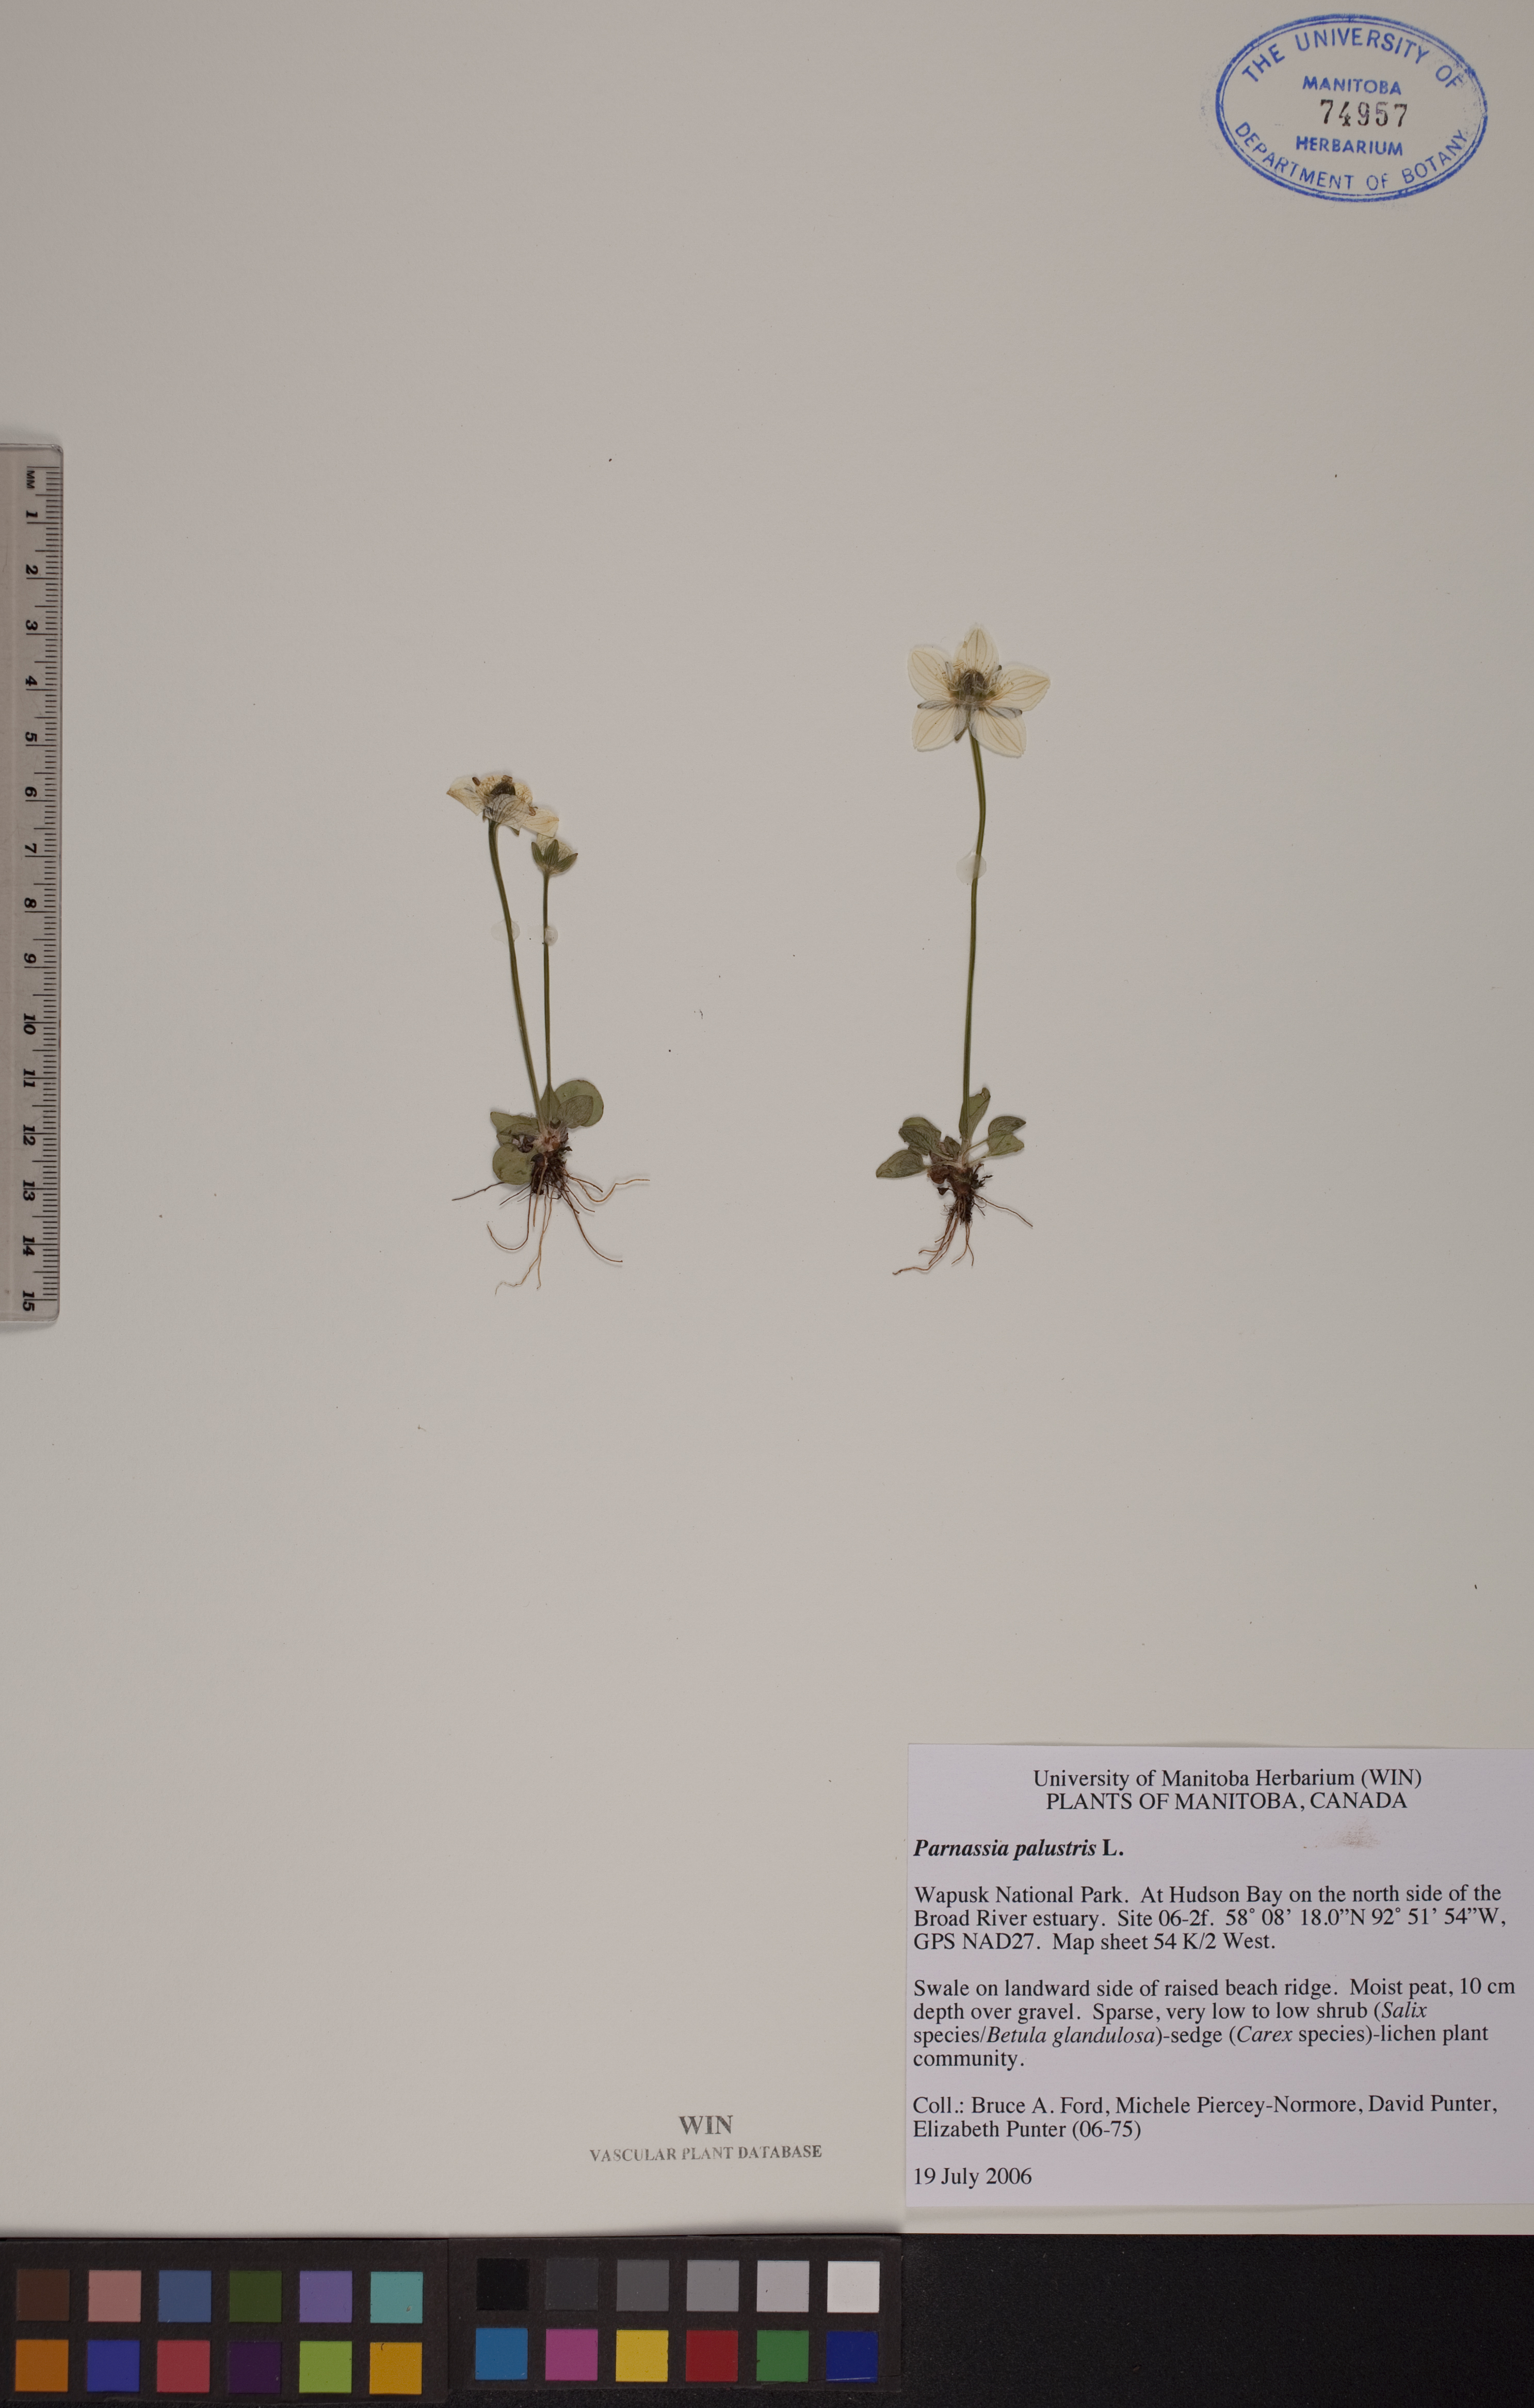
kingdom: Plantae
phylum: Tracheophyta
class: Magnoliopsida
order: Celastrales
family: Parnassiaceae
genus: Parnassia
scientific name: Parnassia palustris
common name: Grass-of-parnassus
